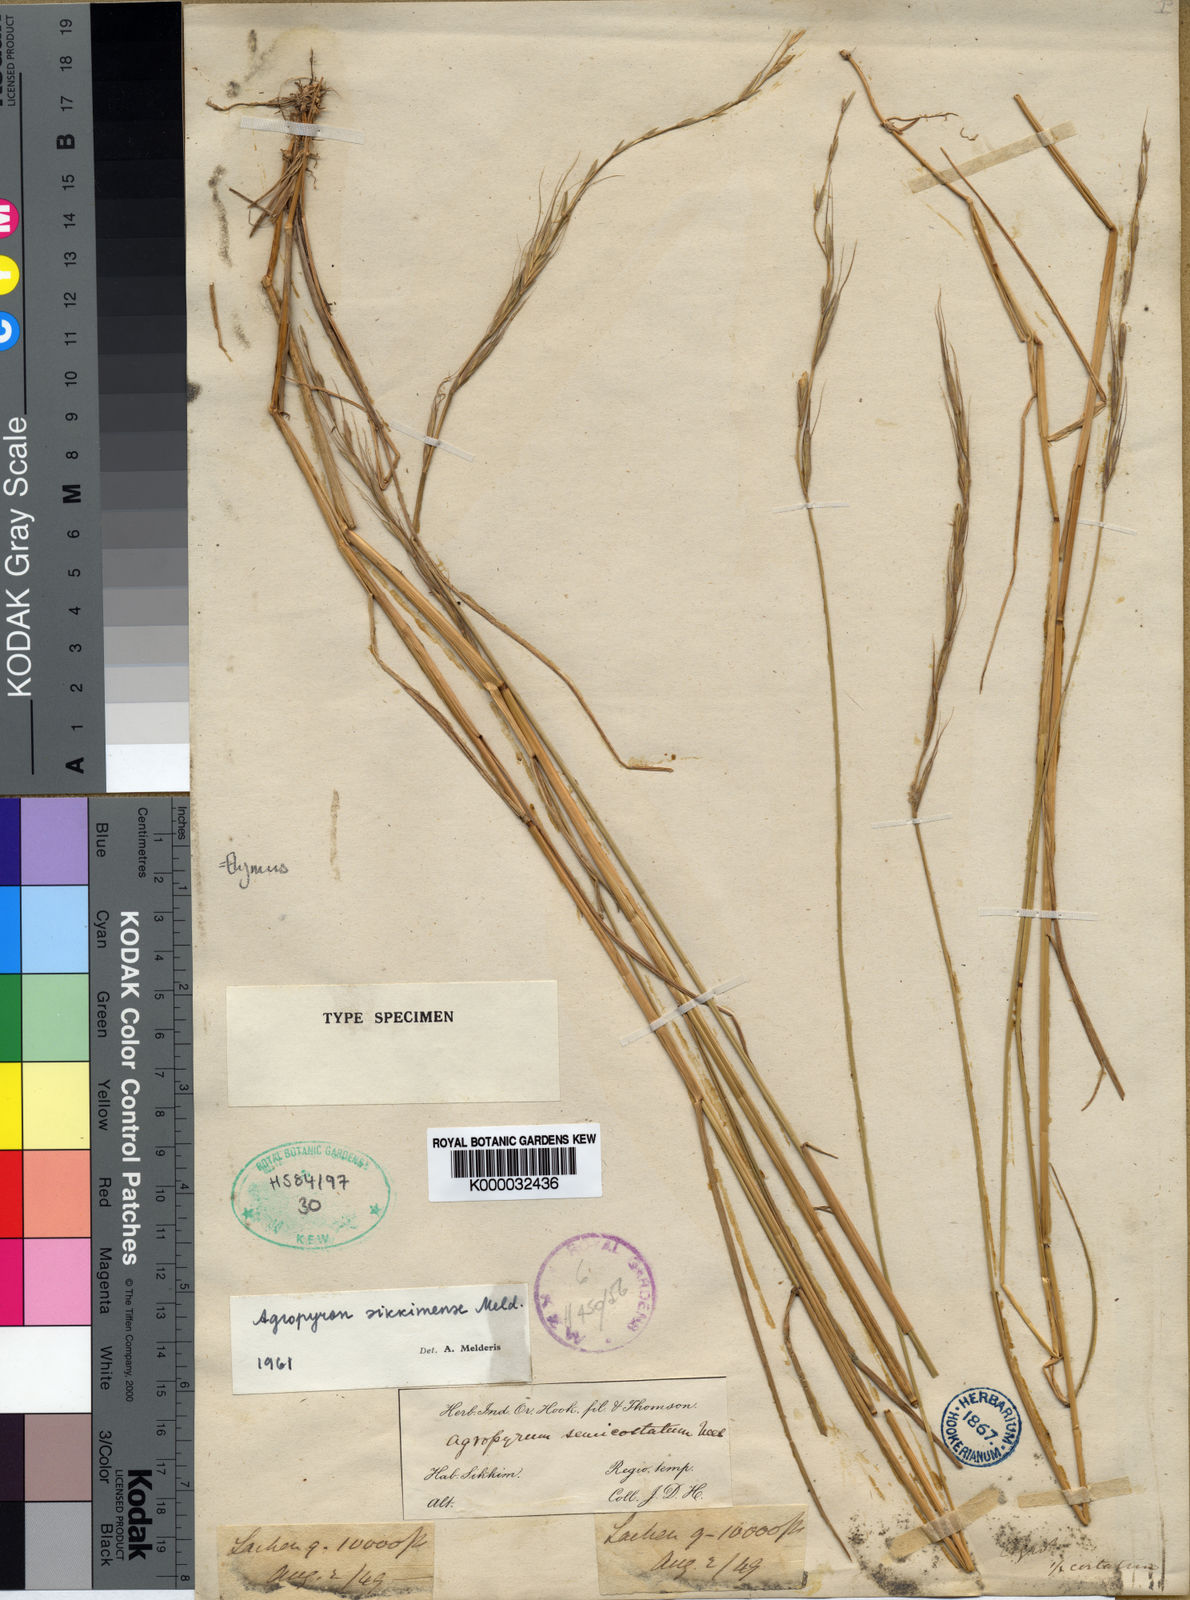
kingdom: Plantae
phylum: Tracheophyta
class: Liliopsida
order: Poales
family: Poaceae
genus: Elymus
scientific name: Elymus semicostatus
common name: Drooping wildrye
